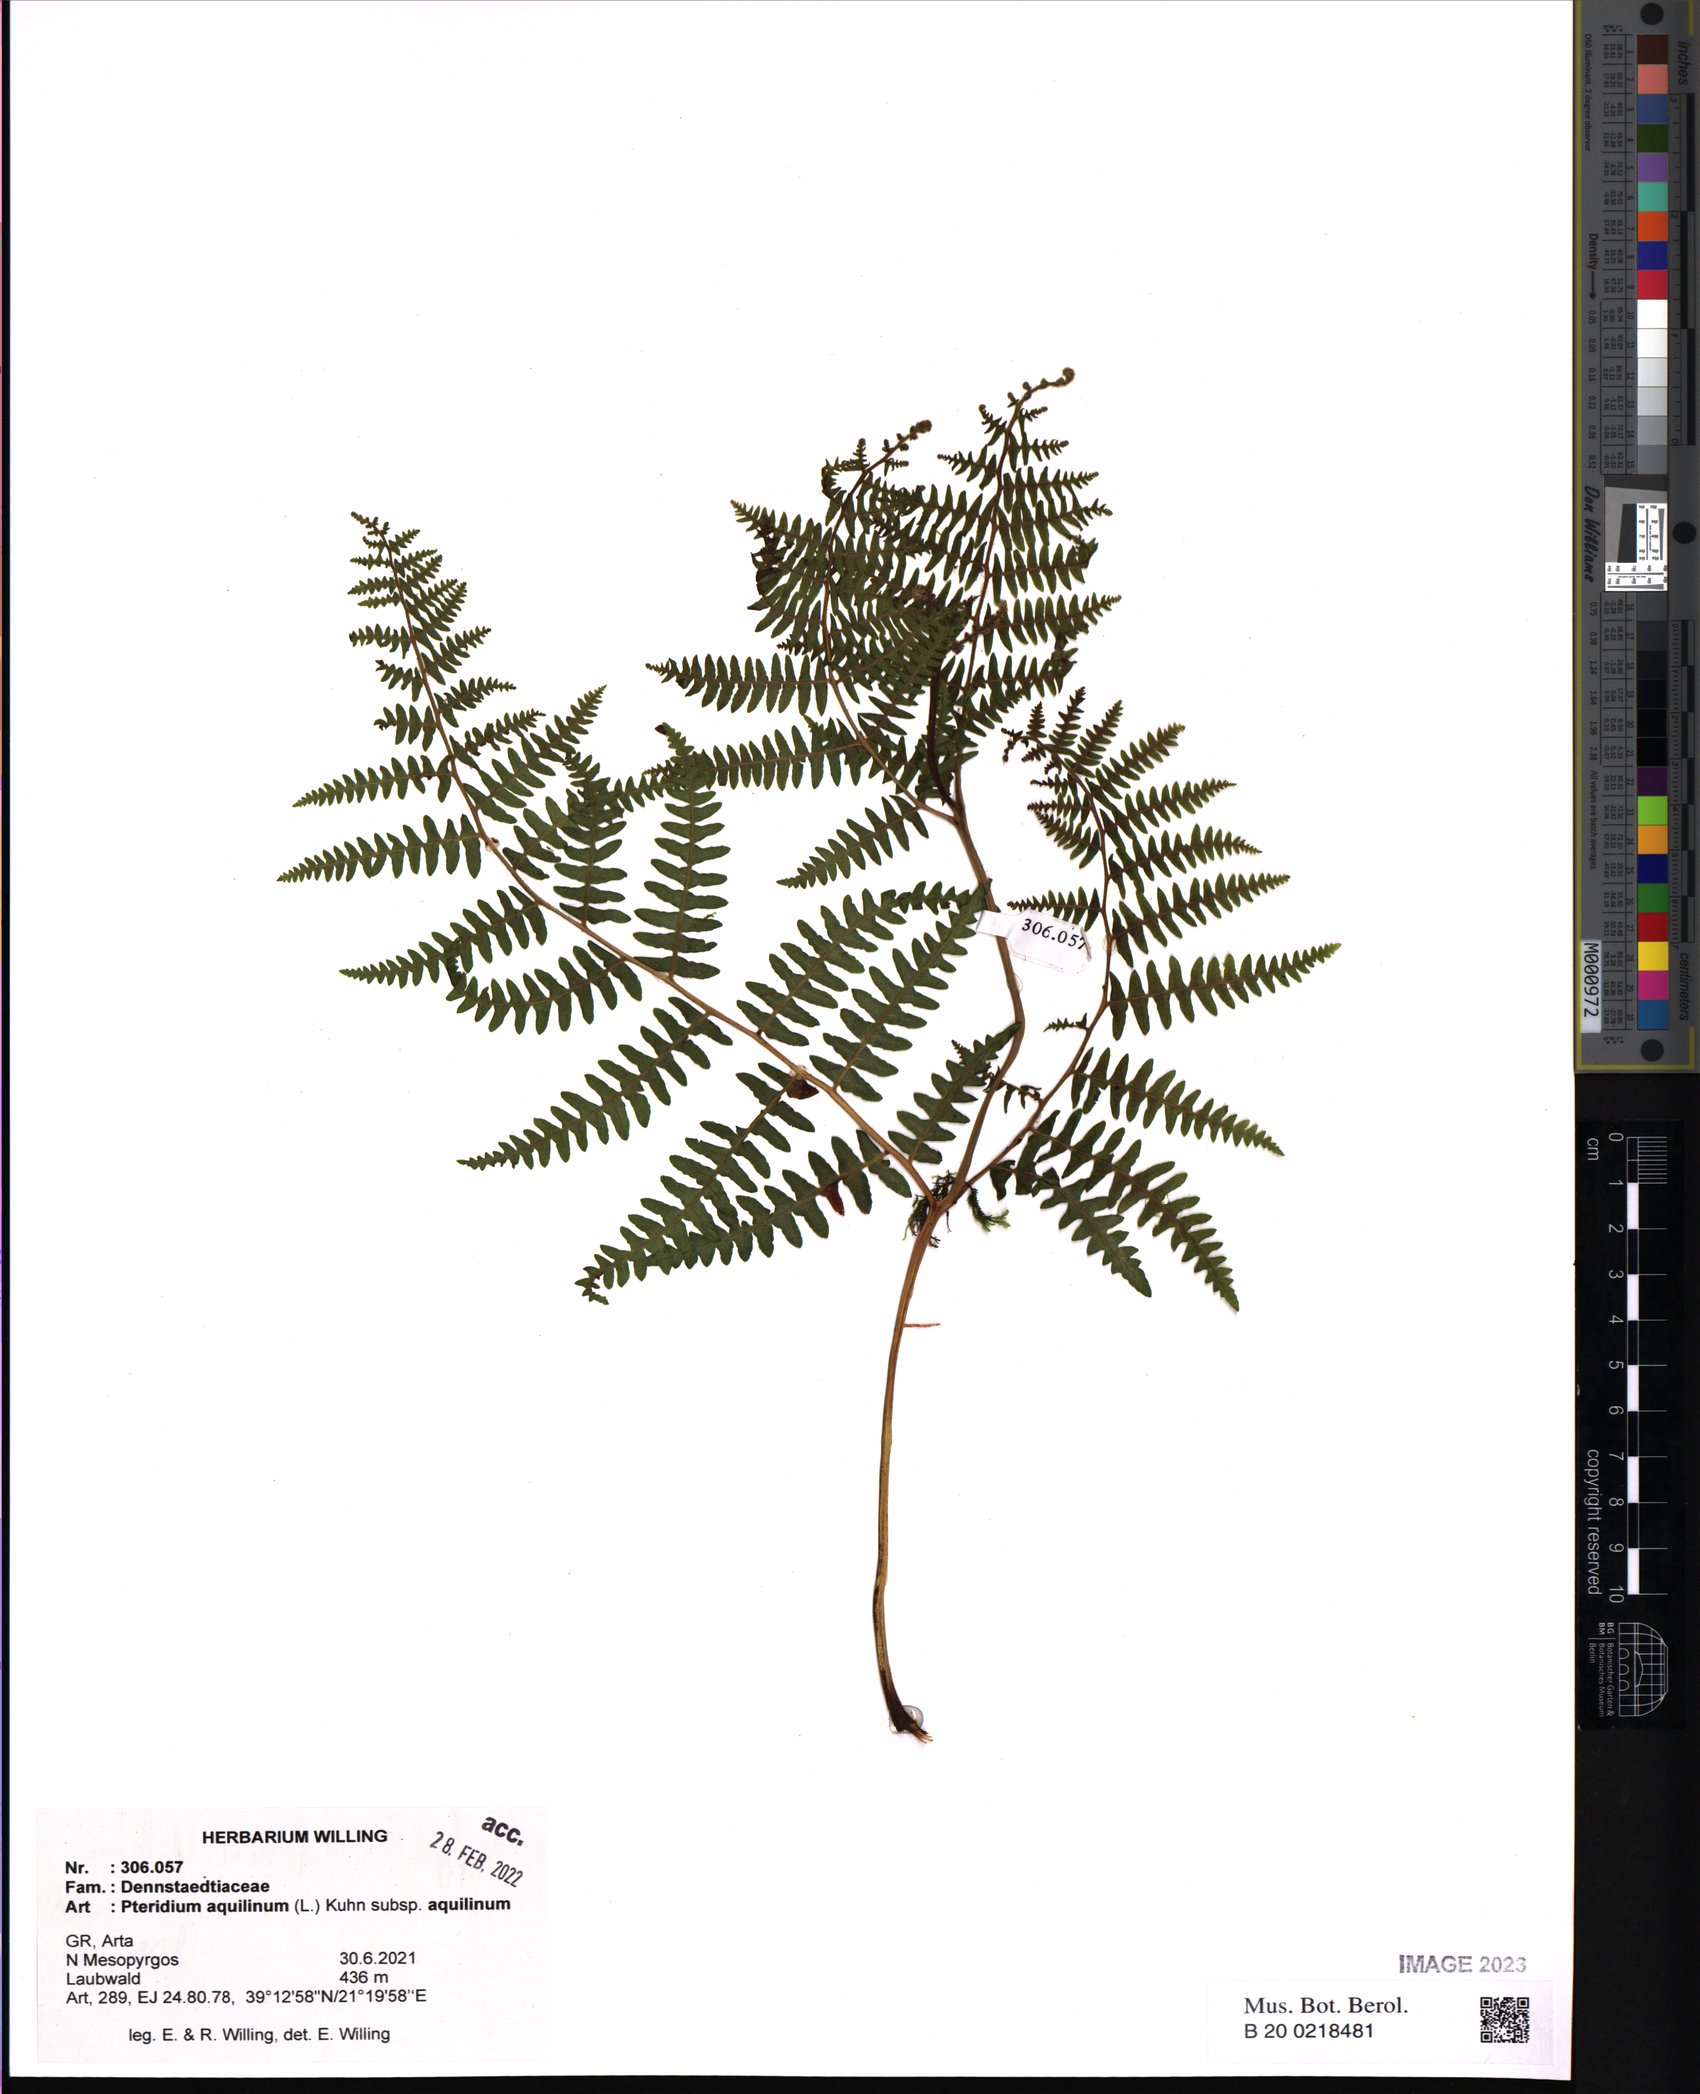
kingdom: Plantae
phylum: Tracheophyta
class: Polypodiopsida
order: Polypodiales
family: Dennstaedtiaceae
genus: Pteridium
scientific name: Pteridium aquilinum
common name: Bracken
